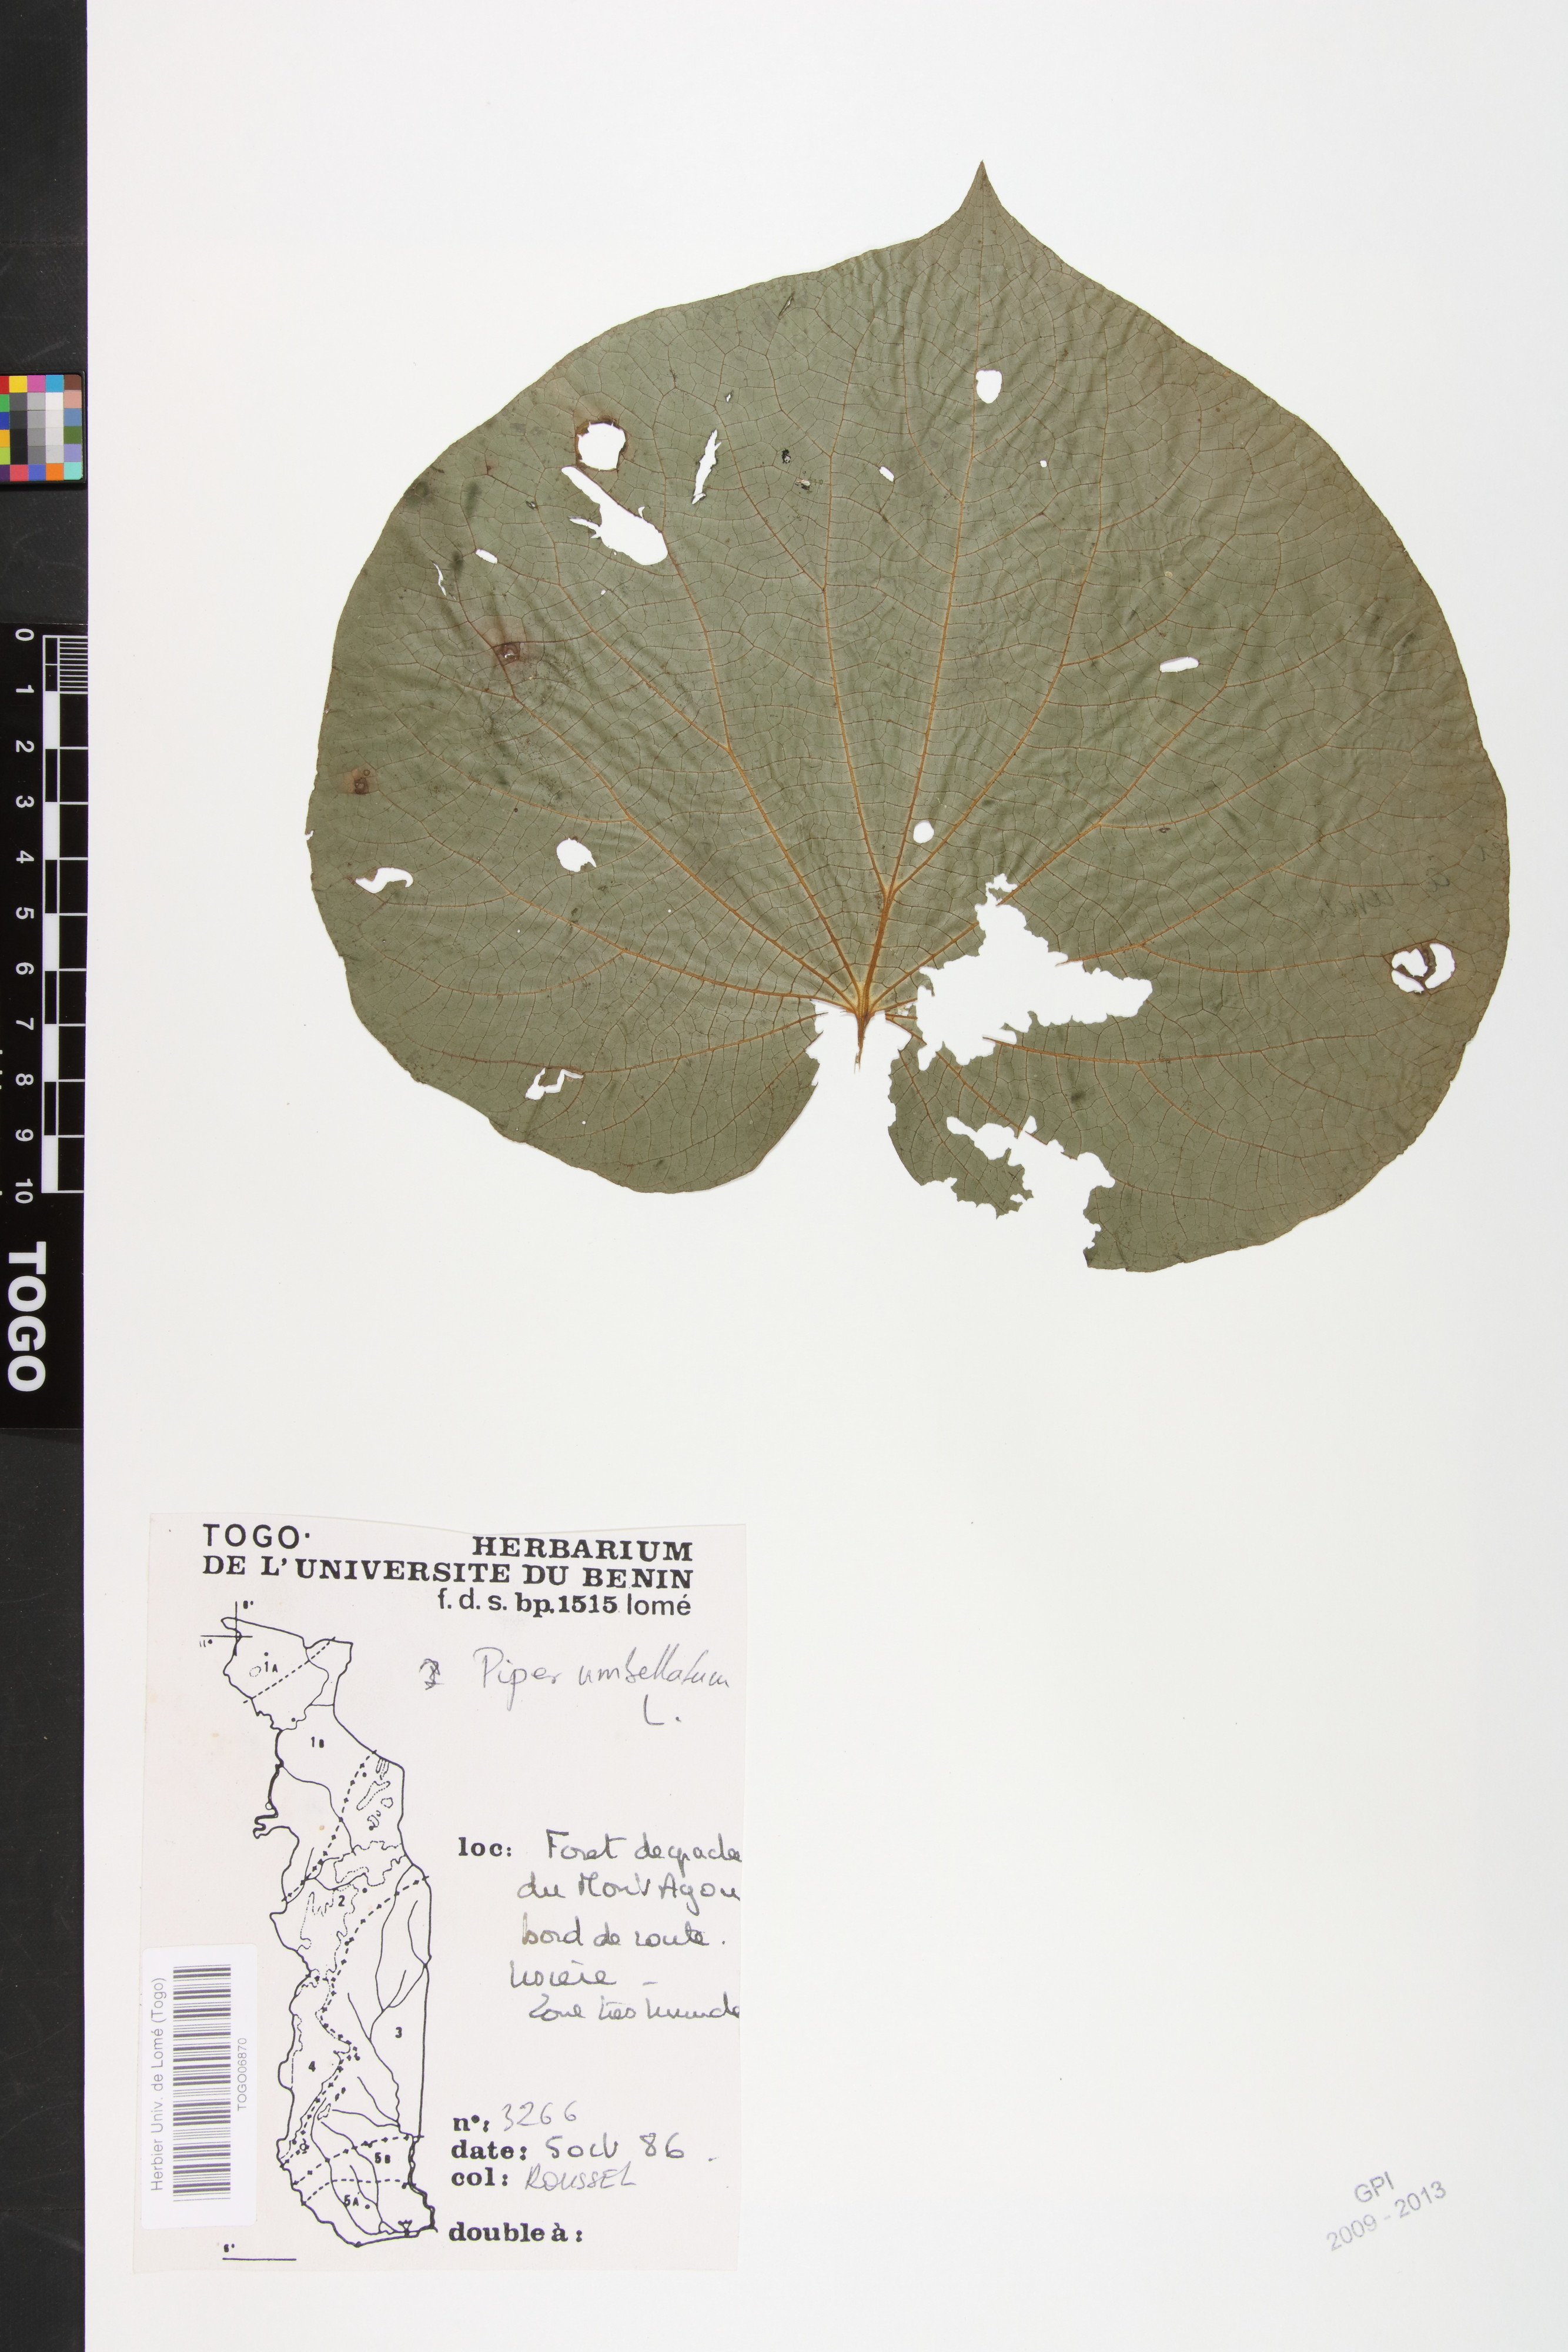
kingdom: Plantae
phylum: Tracheophyta
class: Magnoliopsida
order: Piperales
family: Piperaceae
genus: Piper
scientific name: Piper umbellatum
